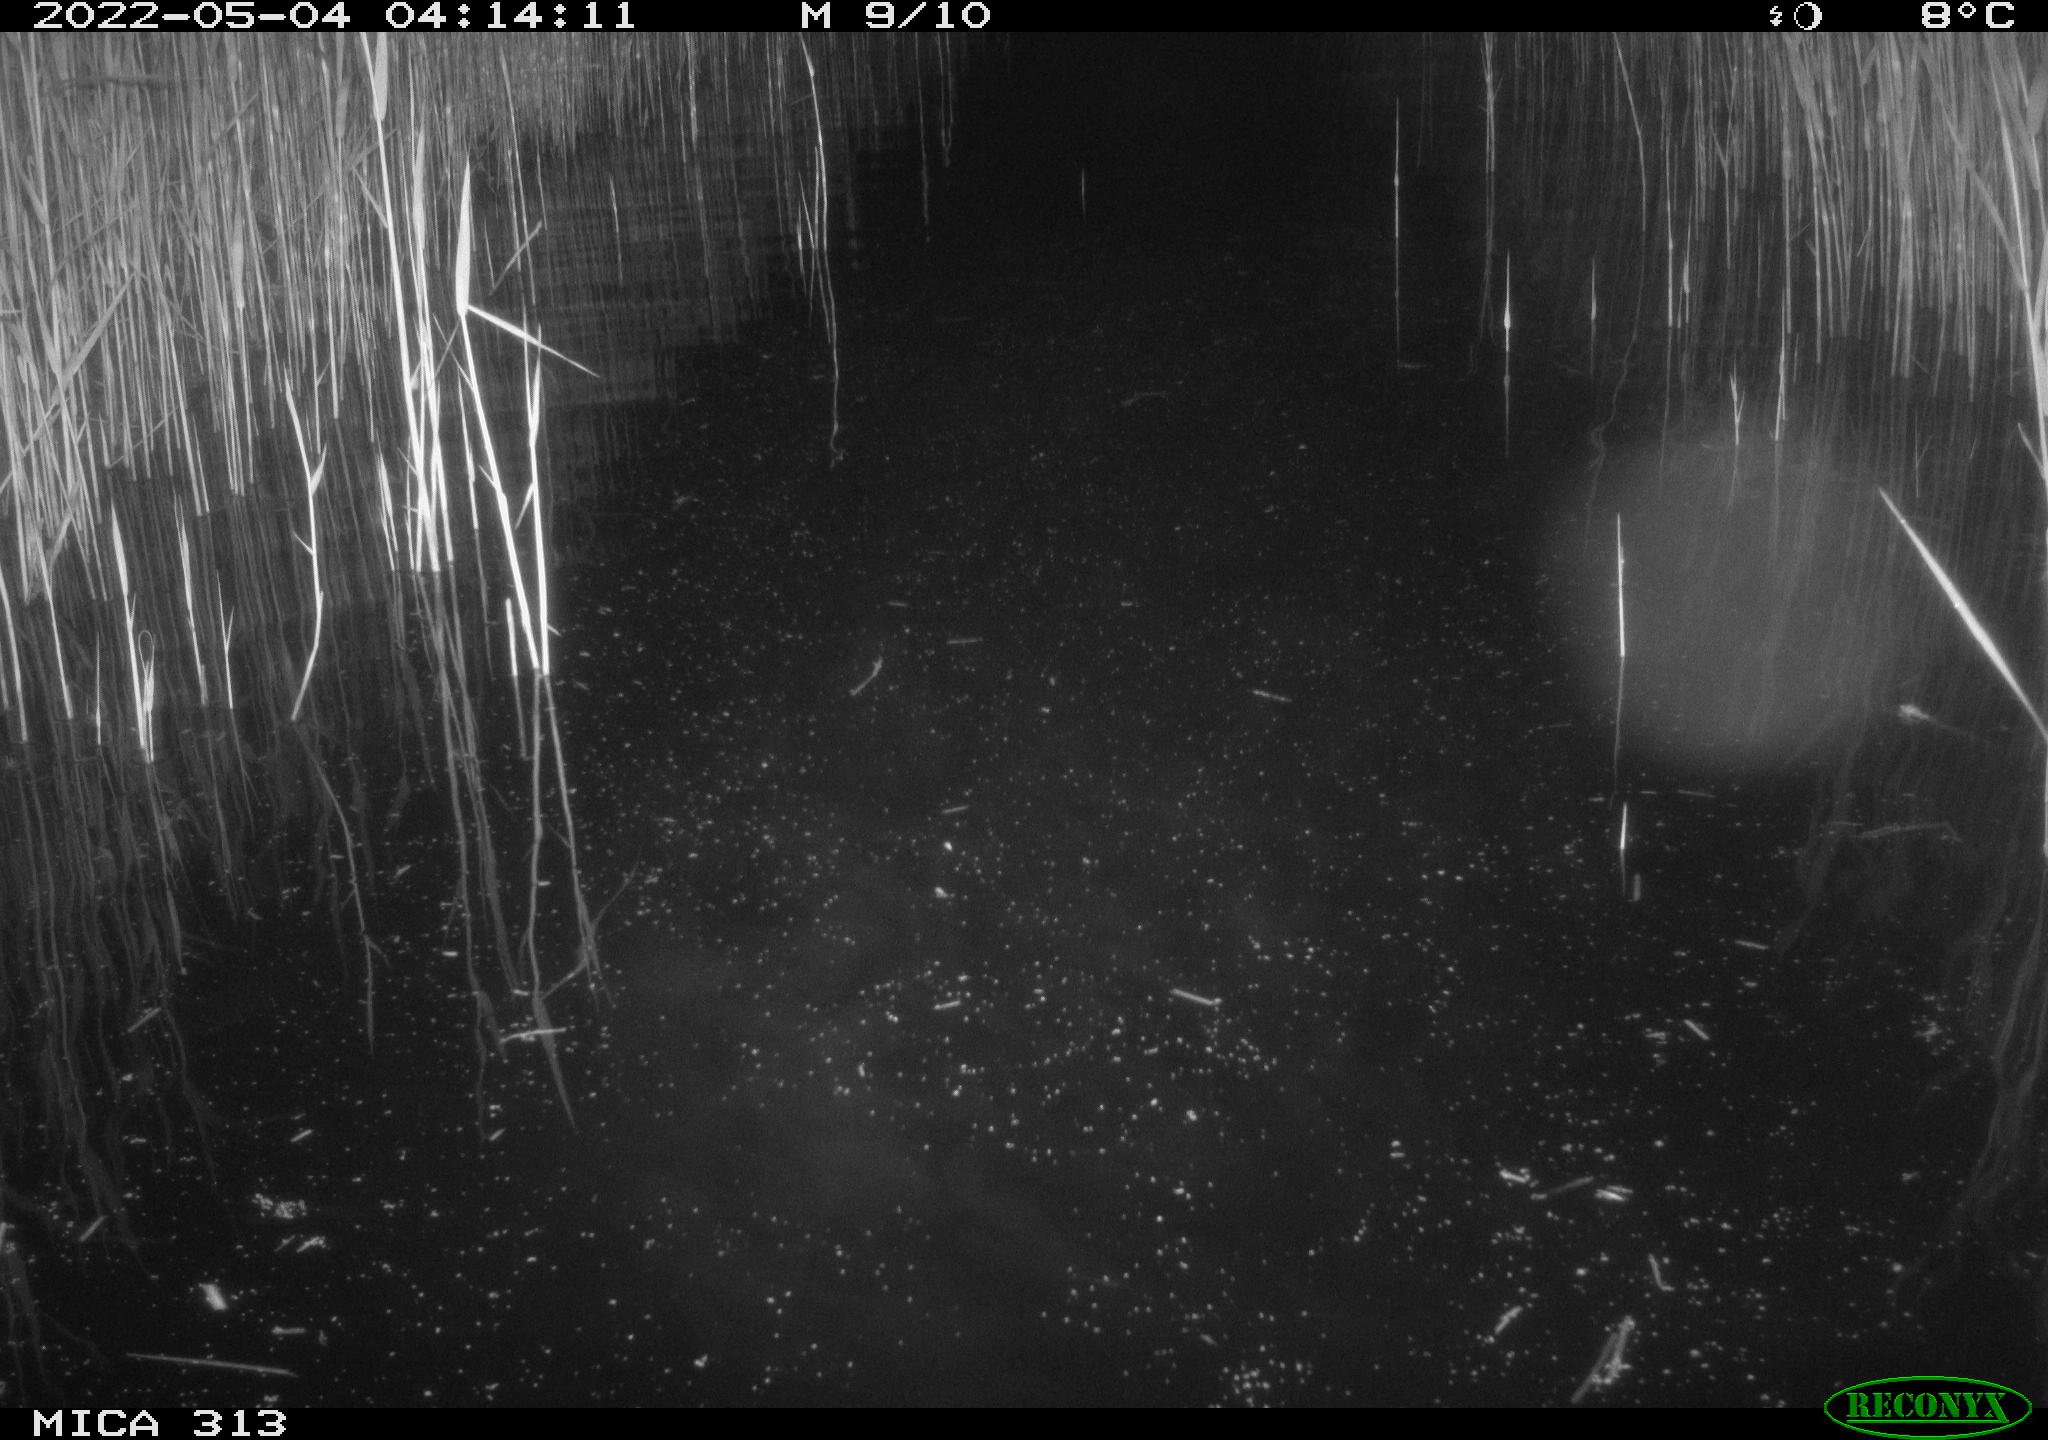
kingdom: Animalia
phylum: Chordata
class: Aves
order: Anseriformes
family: Anatidae
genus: Anas
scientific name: Anas platyrhynchos
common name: Mallard
